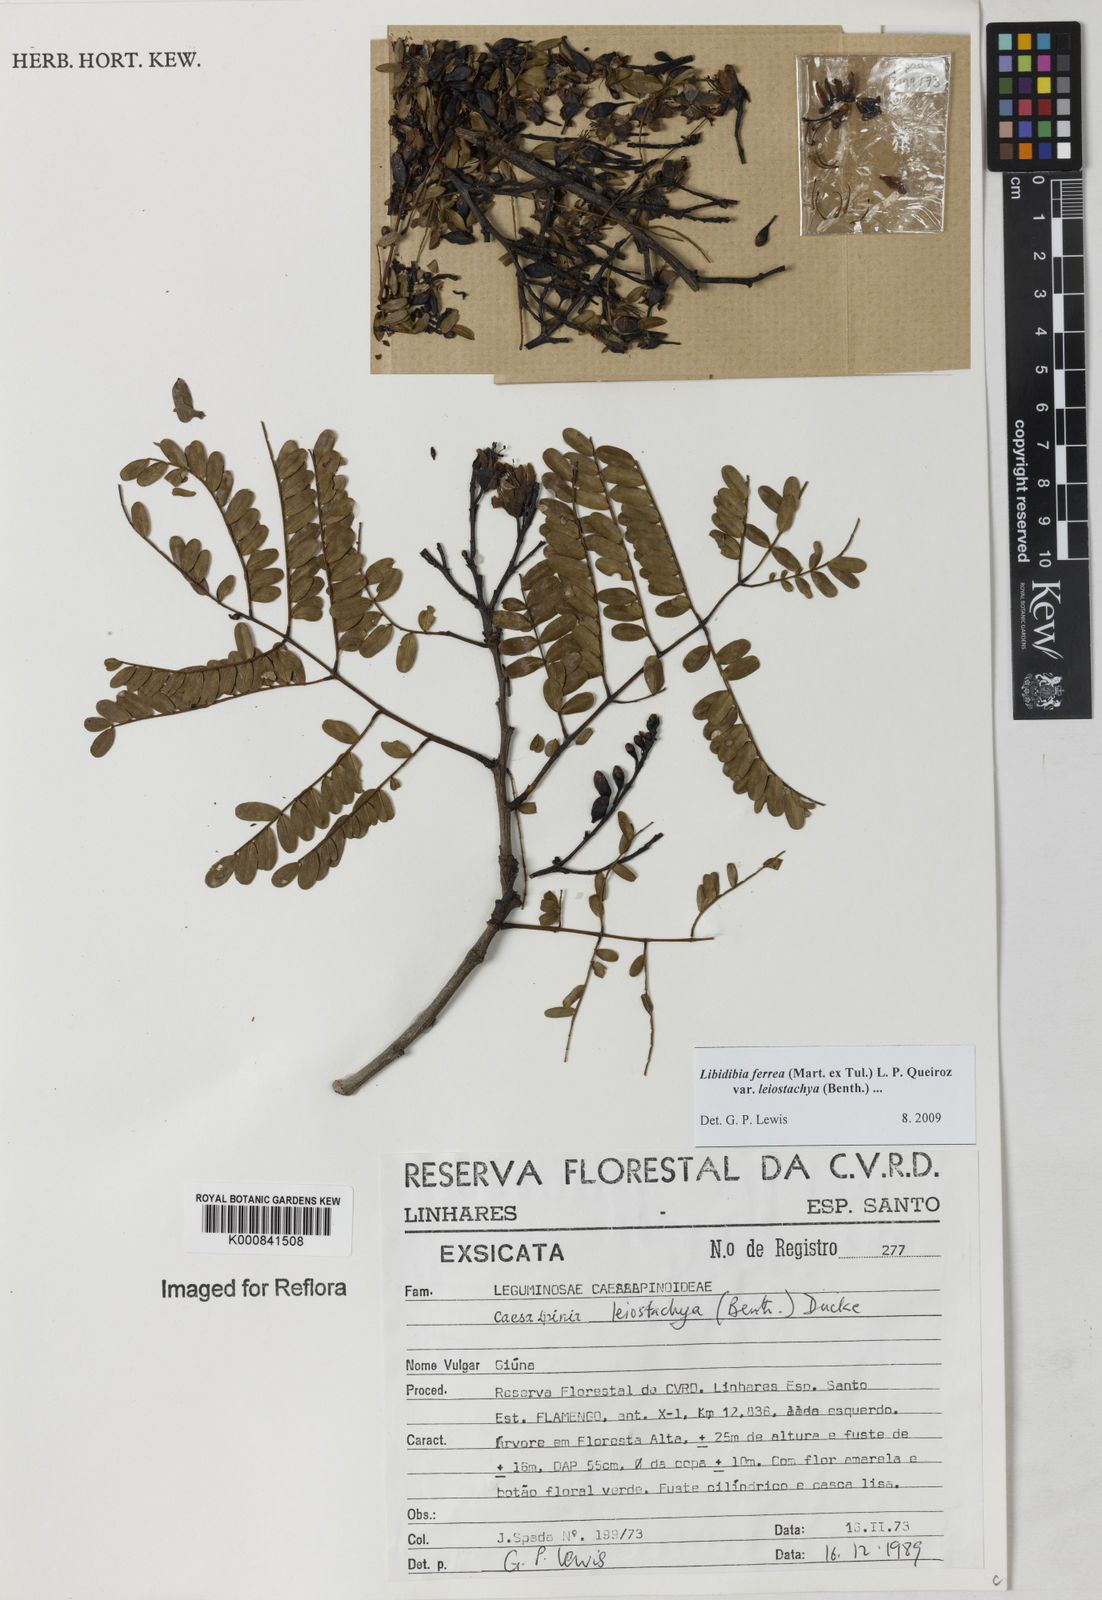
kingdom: Plantae
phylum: Tracheophyta
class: Magnoliopsida
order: Fabales
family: Fabaceae
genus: Libidibia
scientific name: Libidibia ferrea
